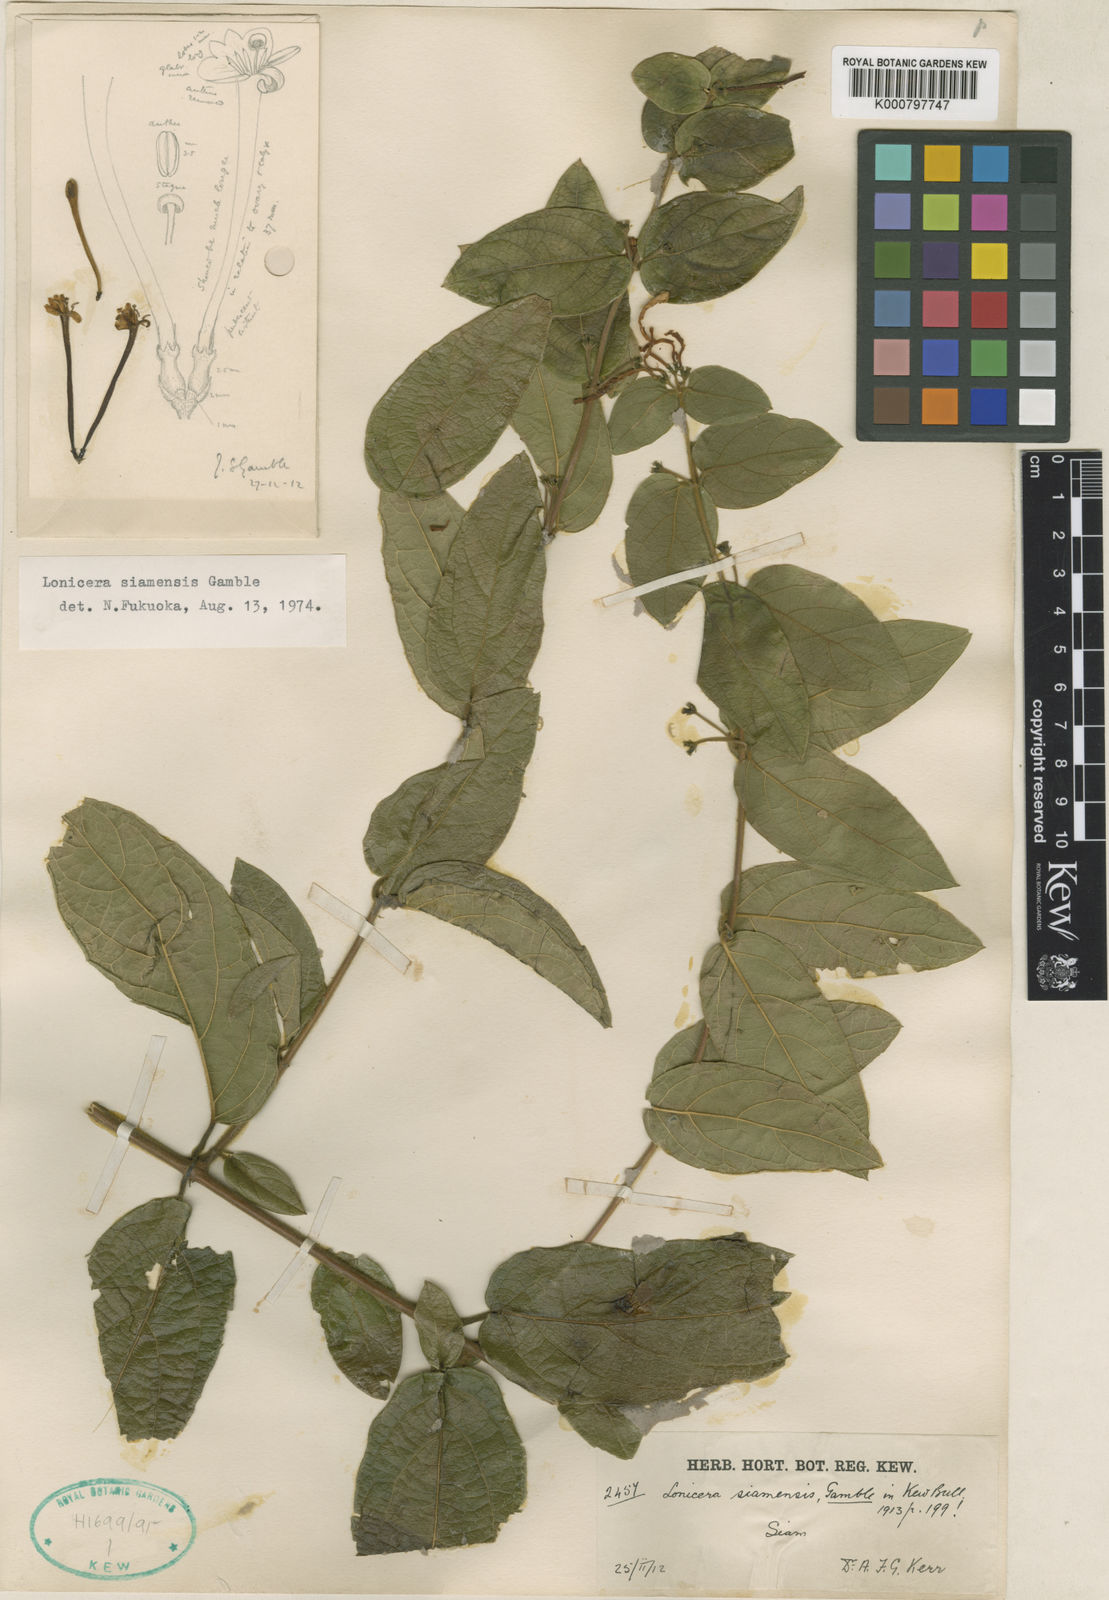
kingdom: Plantae
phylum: Tracheophyta
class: Magnoliopsida
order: Dipsacales
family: Caprifoliaceae
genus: Lonicera
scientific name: Lonicera siamensis
